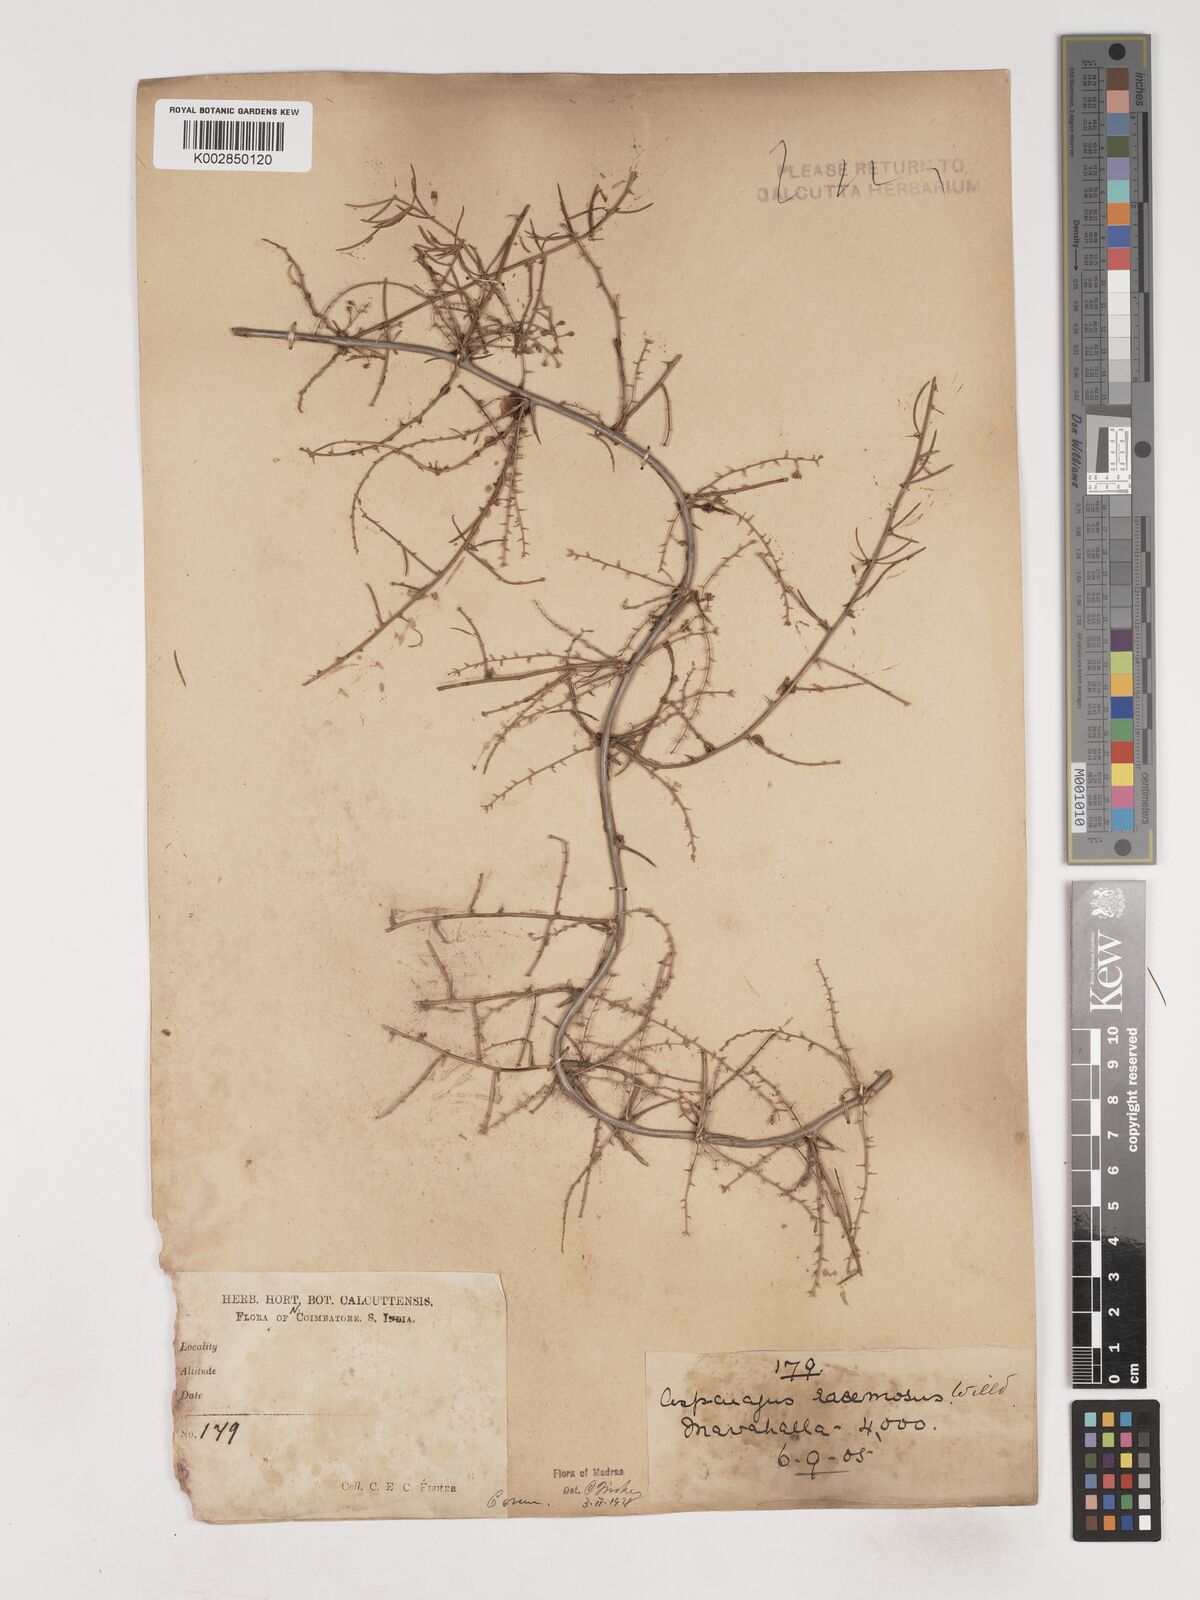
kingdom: Plantae
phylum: Tracheophyta
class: Liliopsida
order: Asparagales
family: Asparagaceae
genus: Asparagus
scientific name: Asparagus racemosus
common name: Asparagus-fern
